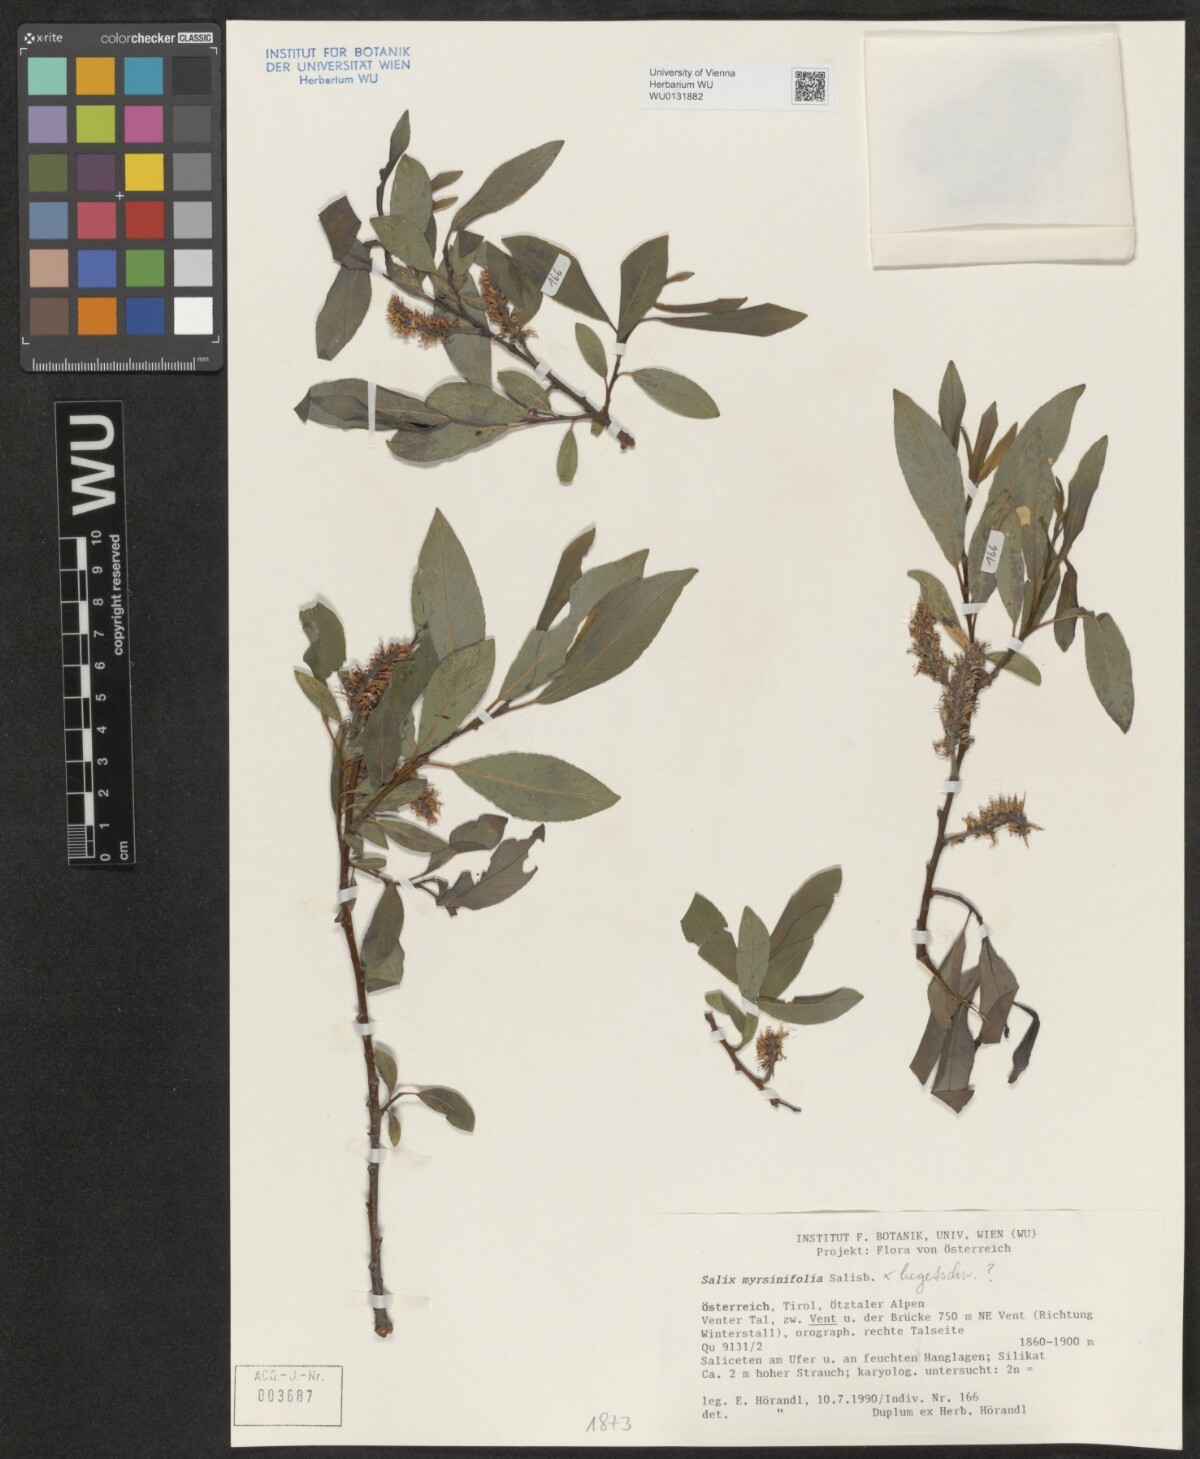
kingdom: Plantae
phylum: Tracheophyta
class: Magnoliopsida
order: Malpighiales
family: Salicaceae
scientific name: Salicaceae
